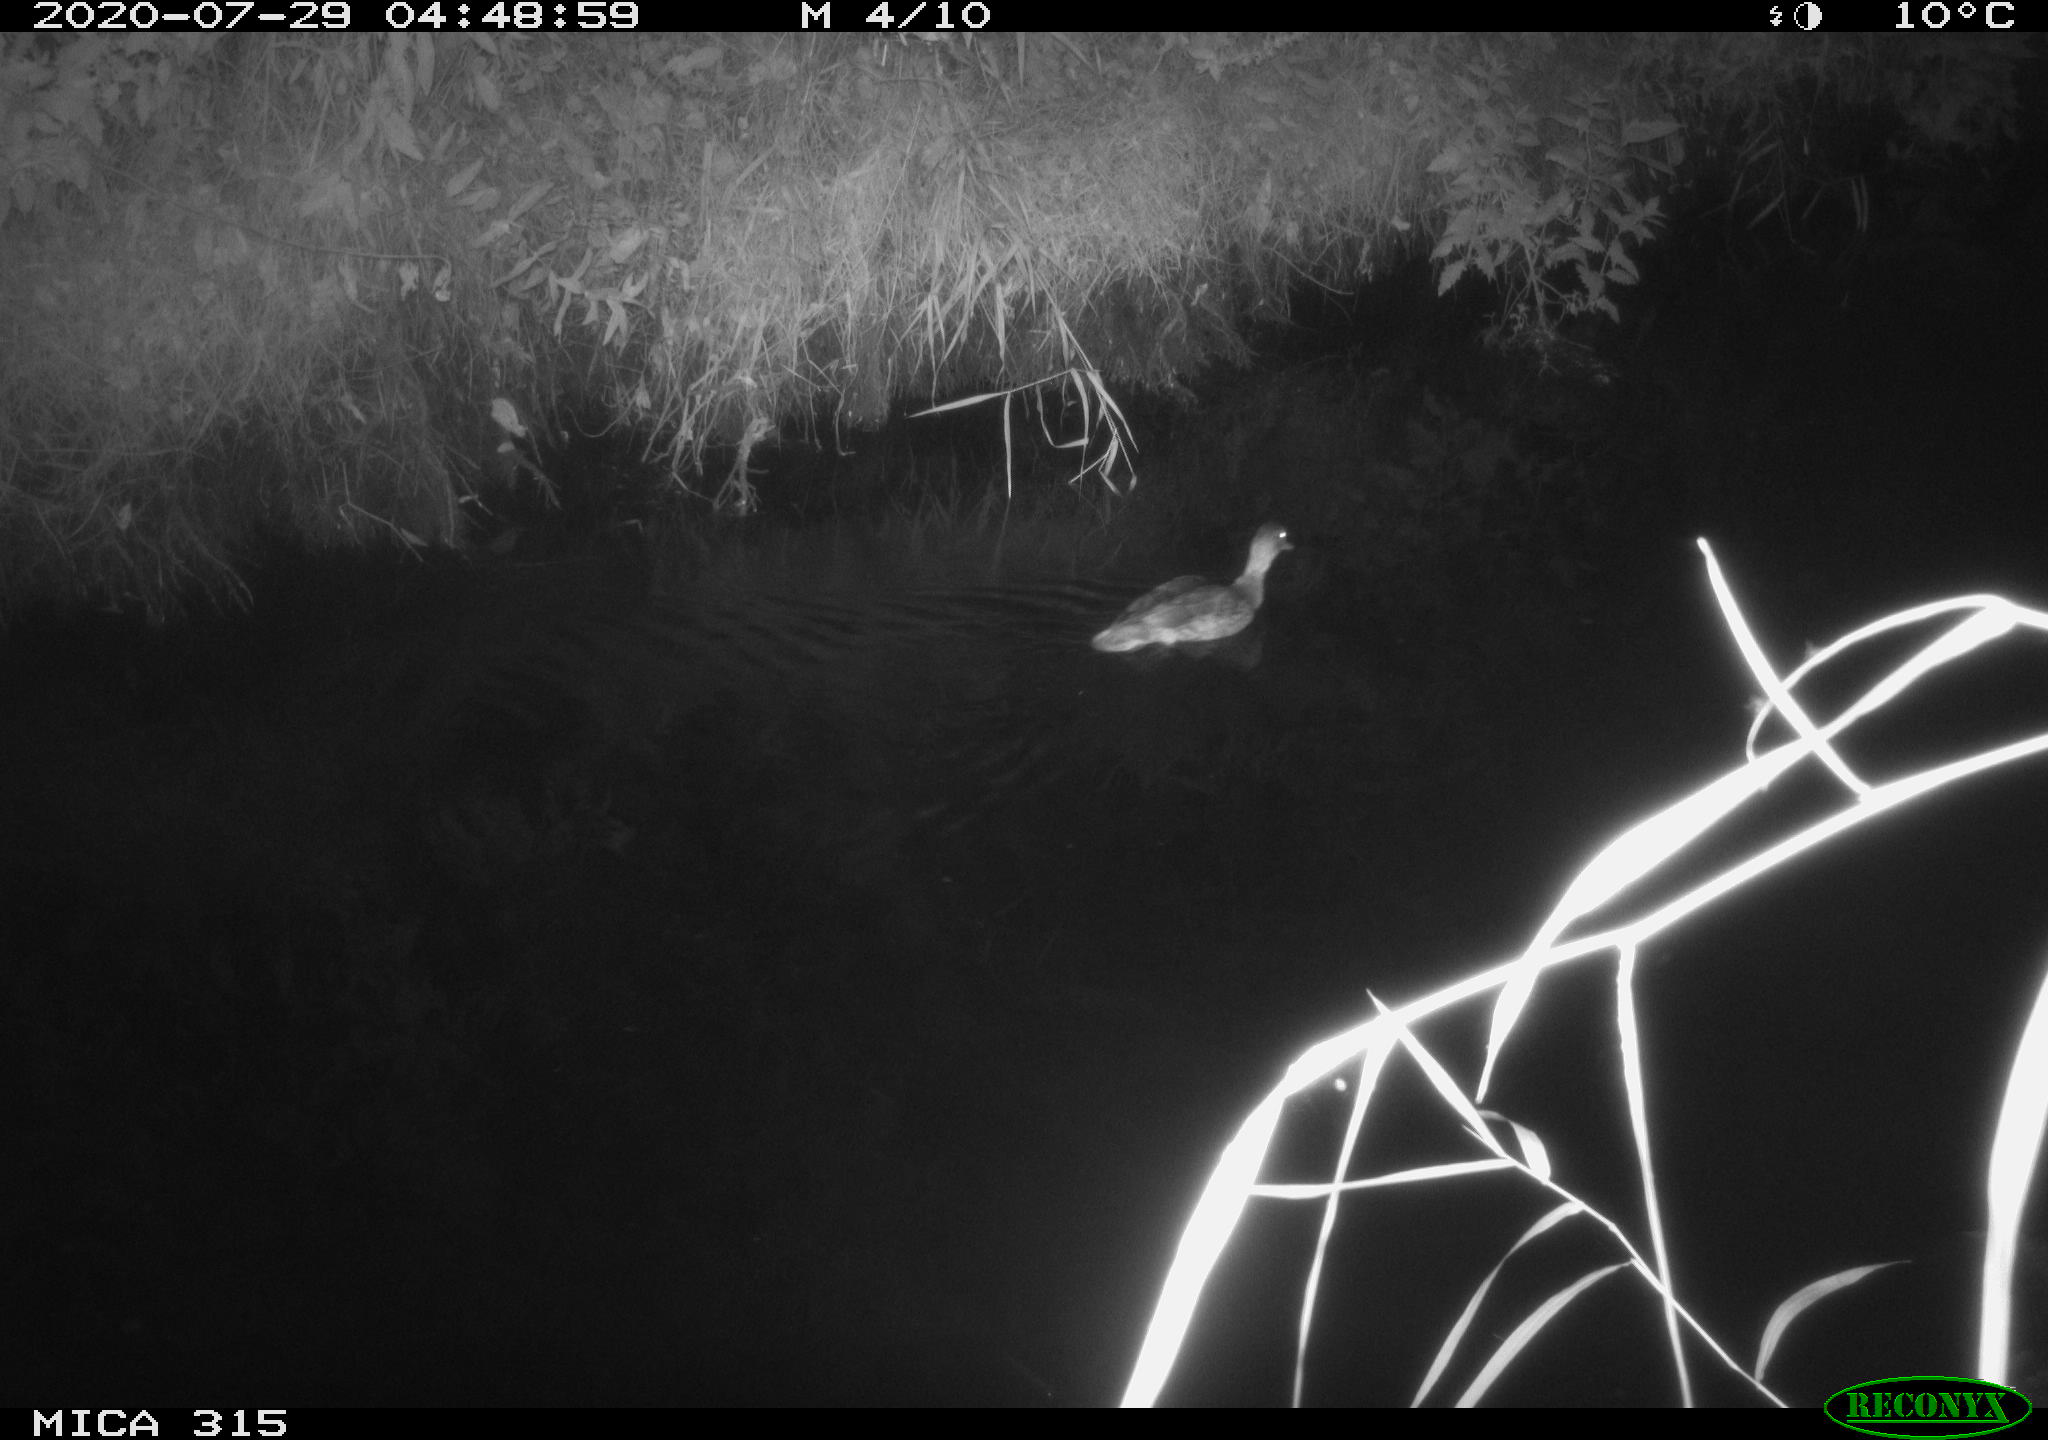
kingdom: Animalia
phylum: Chordata
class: Aves
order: Anseriformes
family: Anatidae
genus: Anas
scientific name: Anas platyrhynchos
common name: Mallard
